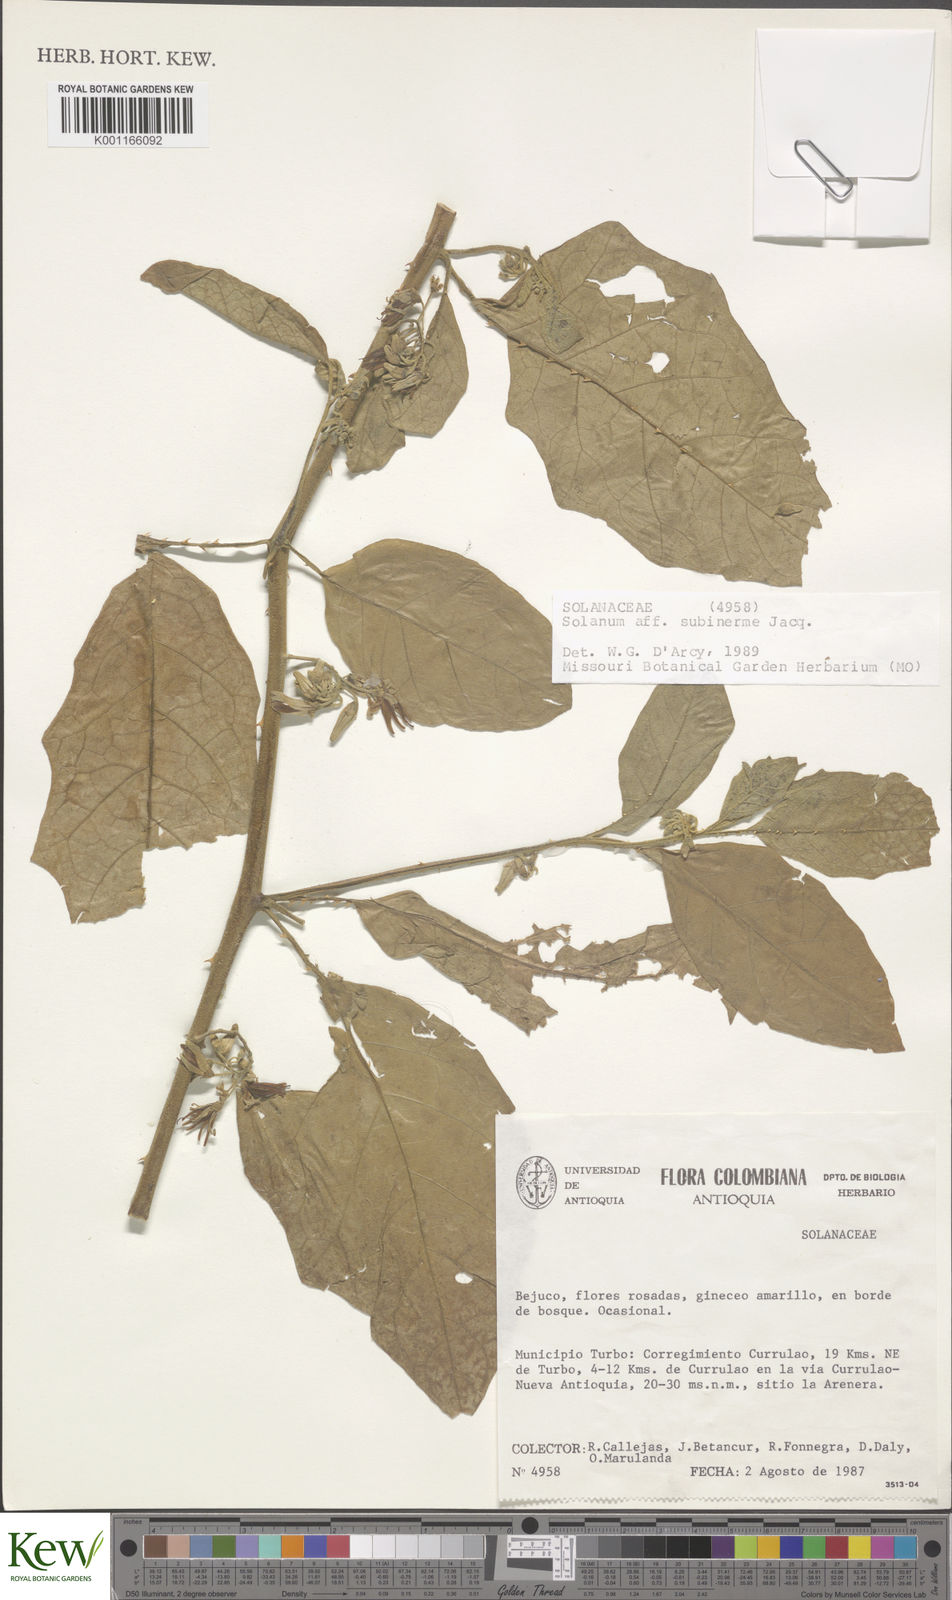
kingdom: Plantae
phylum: Tracheophyta
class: Magnoliopsida
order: Solanales
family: Solanaceae
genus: Solanum
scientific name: Solanum subinerme
